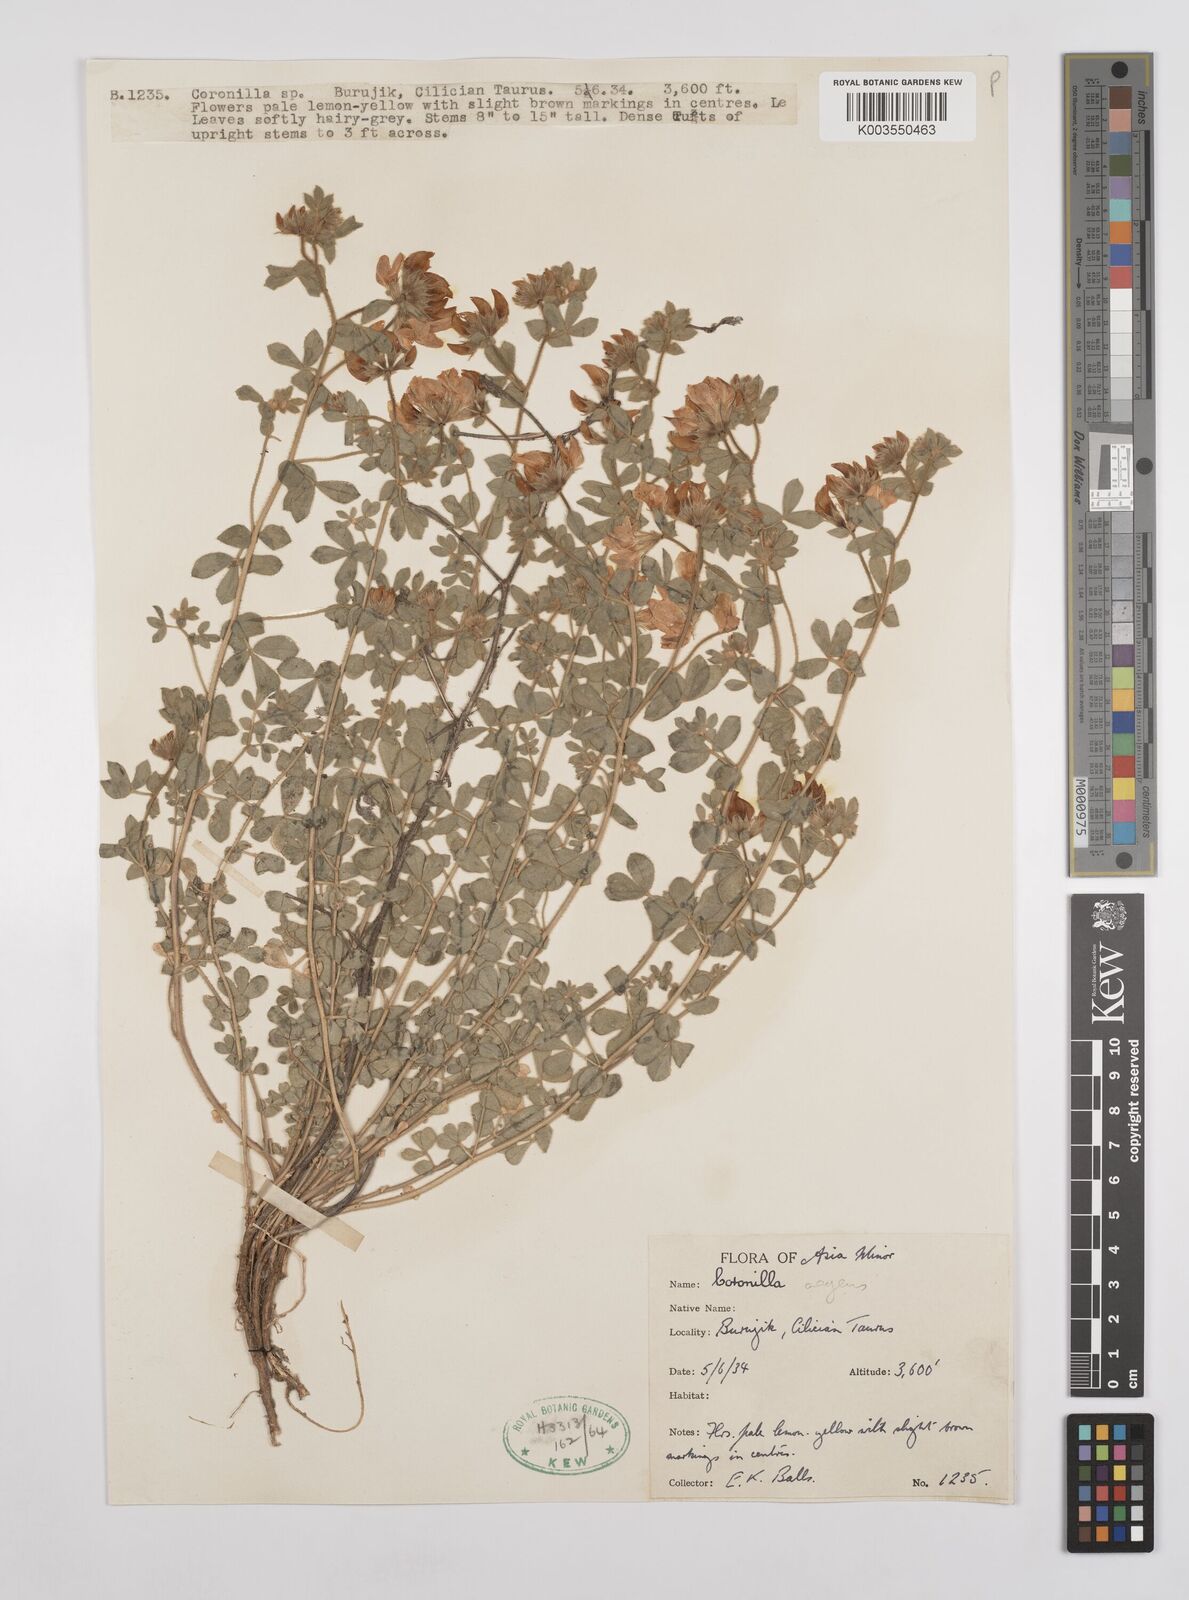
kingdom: Plantae
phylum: Tracheophyta
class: Magnoliopsida
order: Fabales
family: Fabaceae
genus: Lotus
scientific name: Lotus aegaeus
